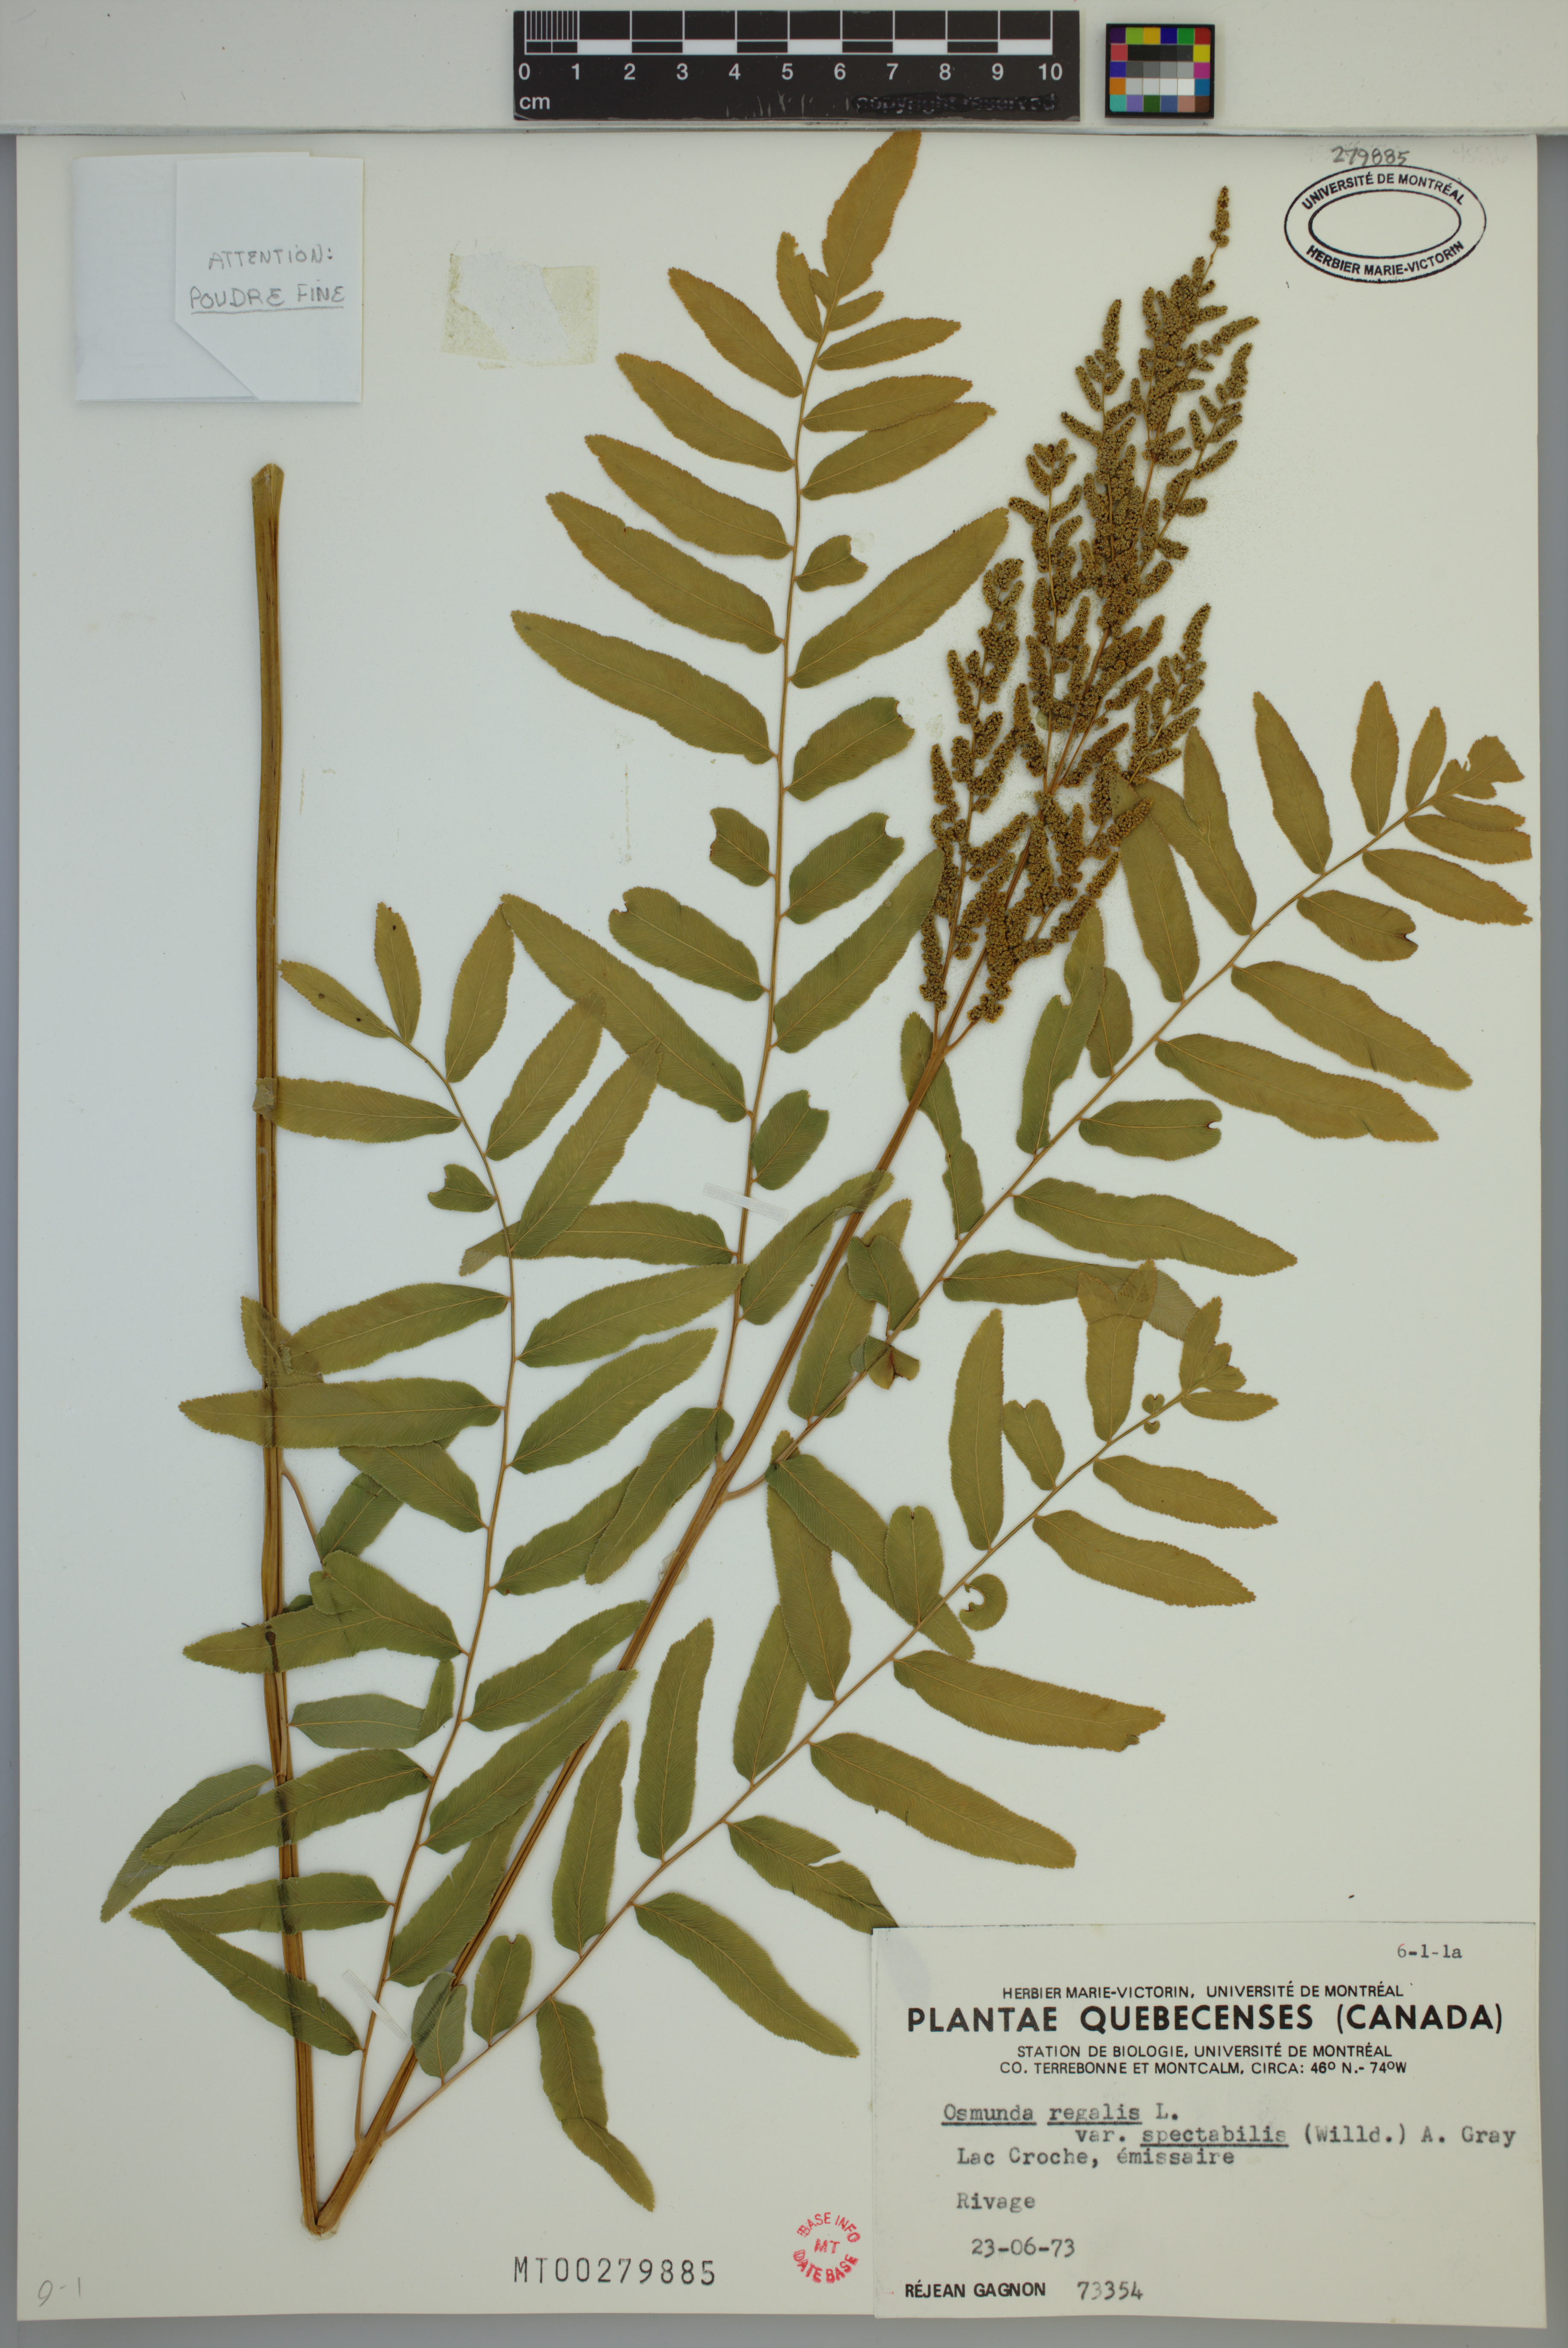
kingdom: Plantae
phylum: Tracheophyta
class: Polypodiopsida
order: Osmundales
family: Osmundaceae
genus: Osmunda
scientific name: Osmunda spectabilis
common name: American royal fern
